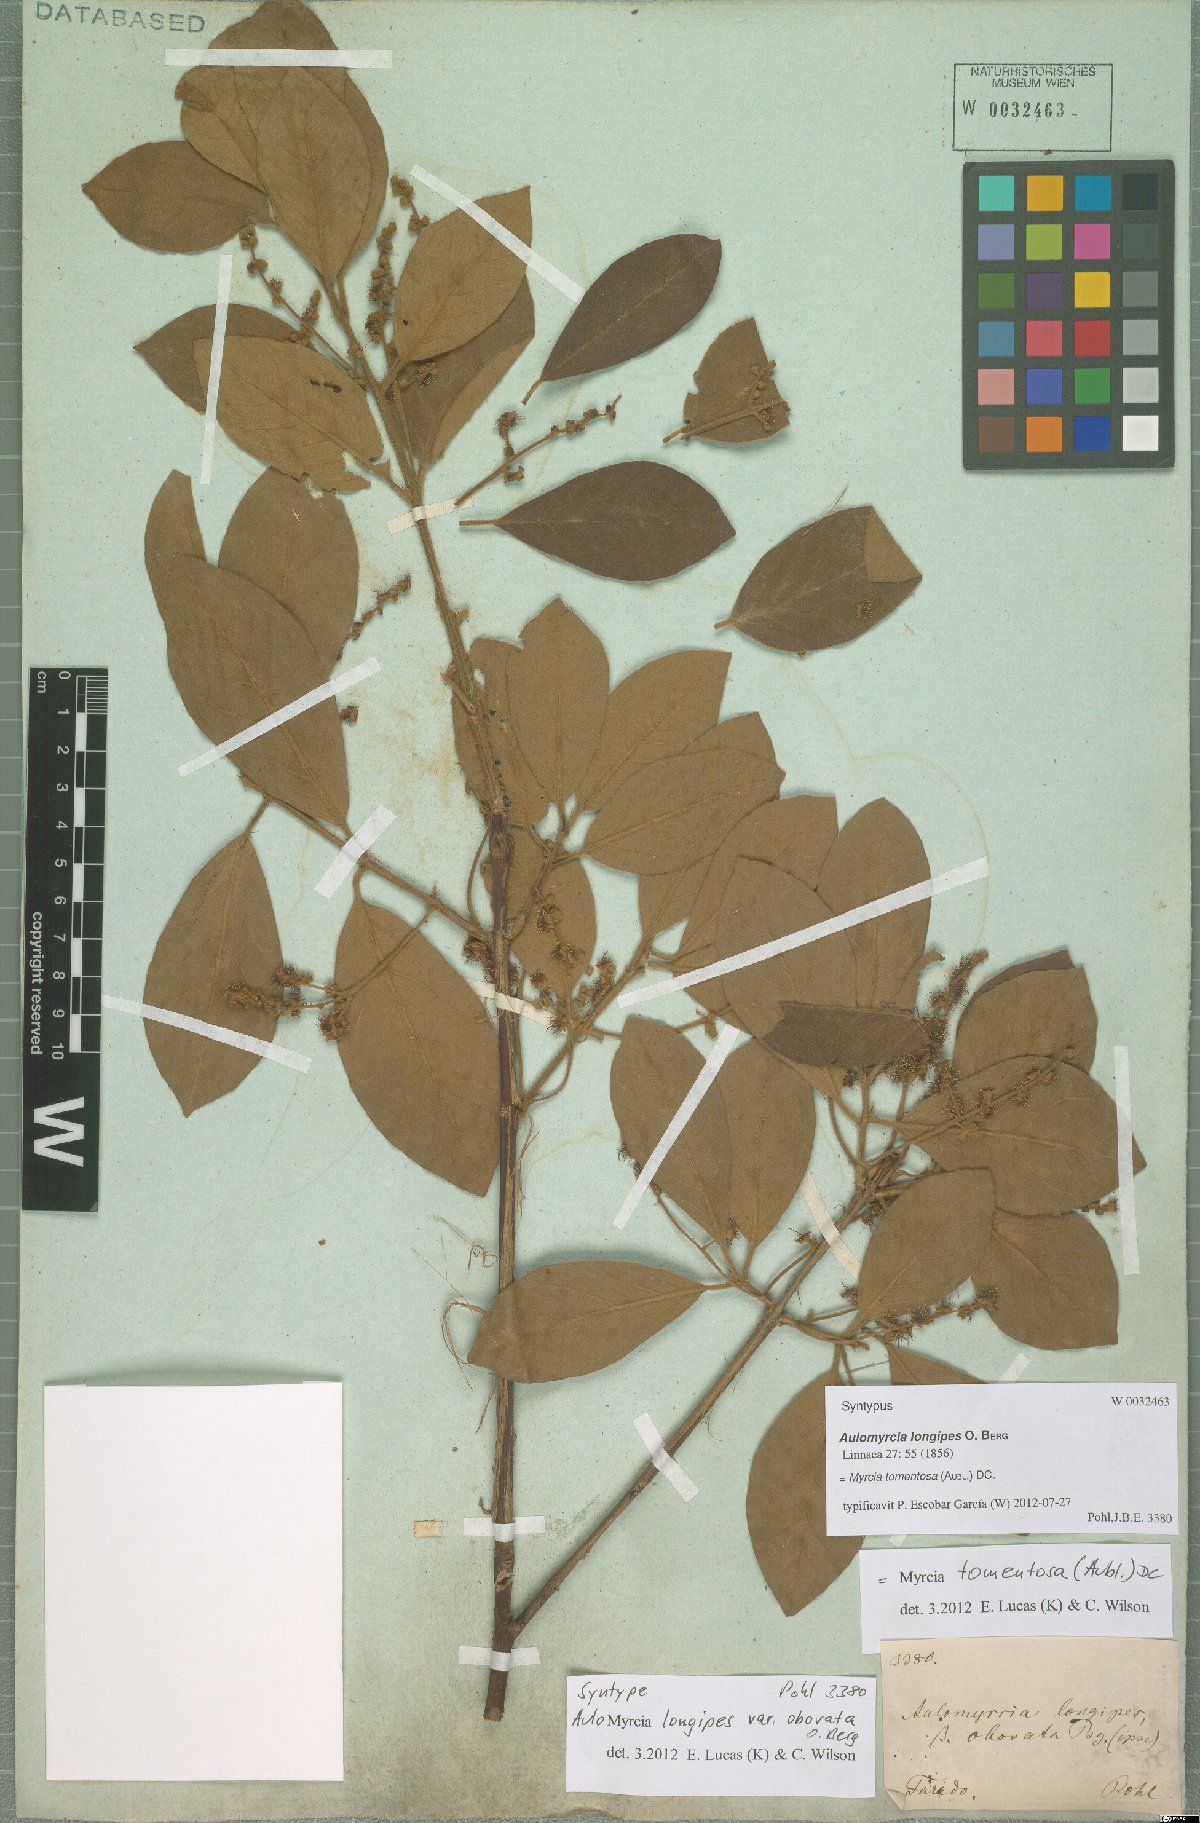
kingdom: Plantae
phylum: Tracheophyta
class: Magnoliopsida
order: Myrtales
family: Myrtaceae
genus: Myrcia
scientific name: Myrcia tomentosa
